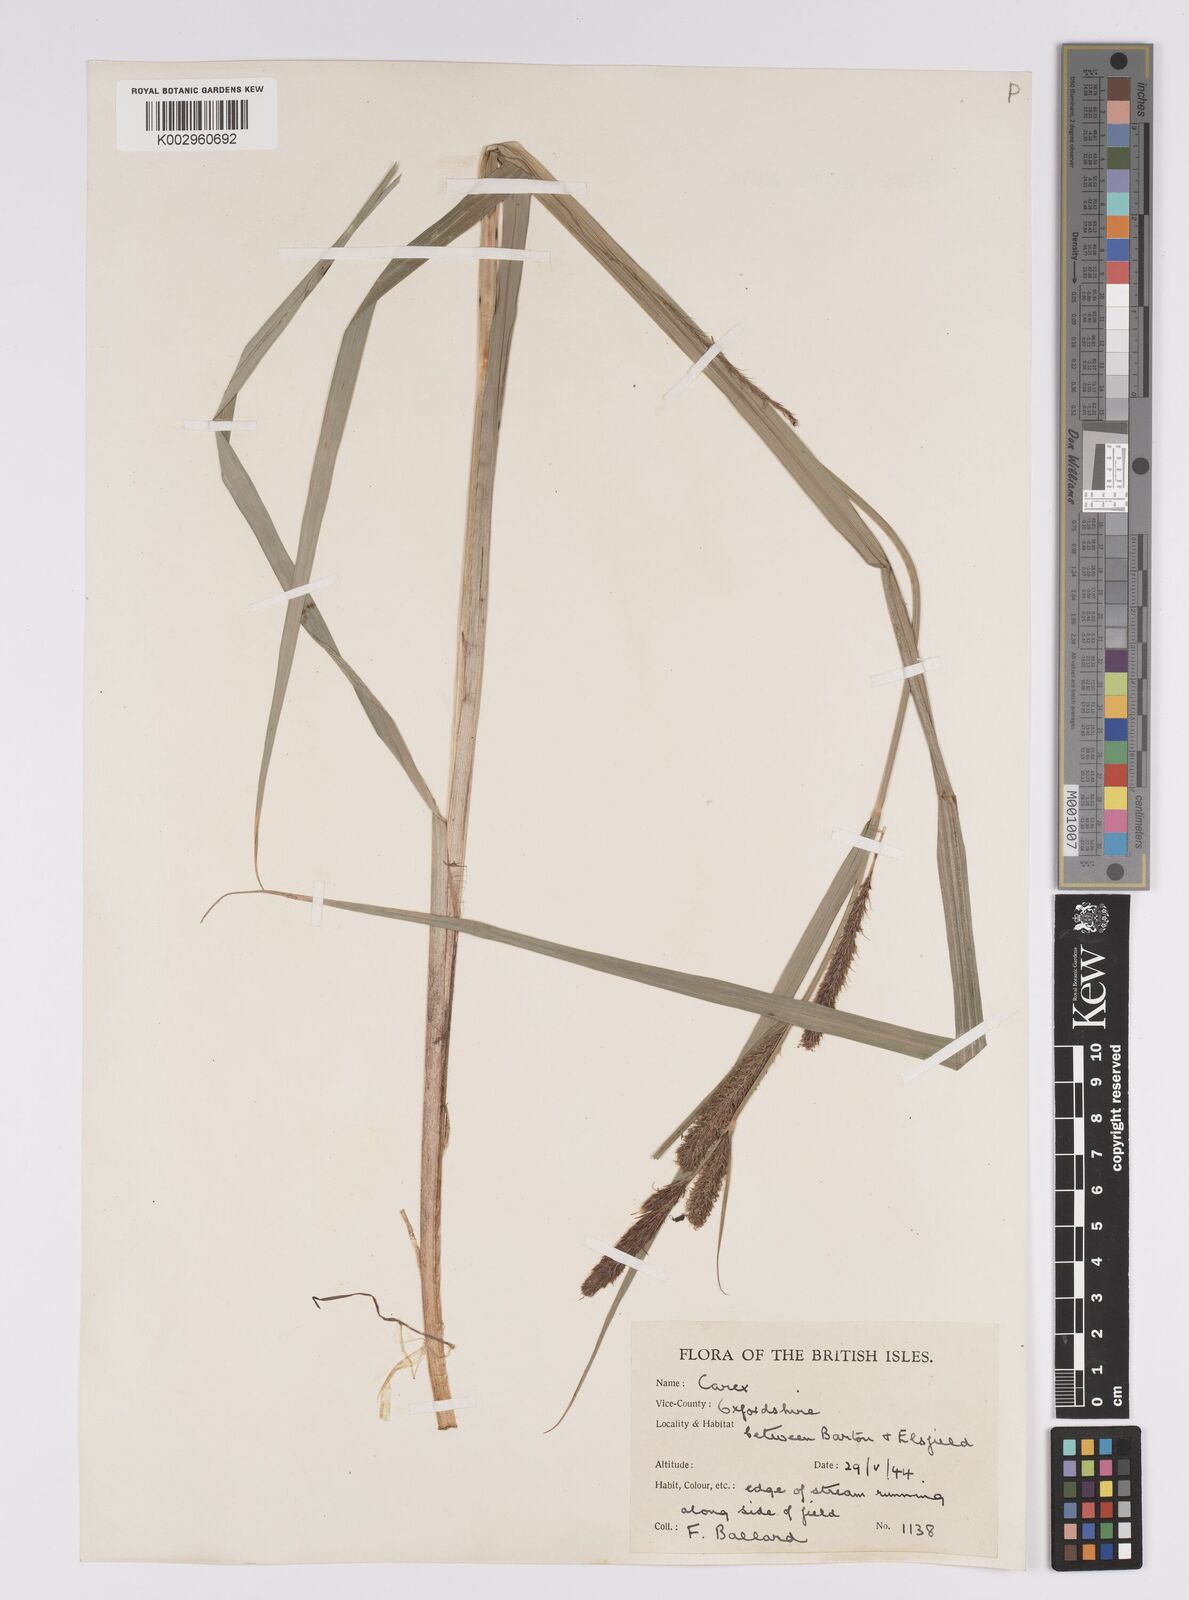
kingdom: Plantae
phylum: Tracheophyta
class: Liliopsida
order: Poales
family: Cyperaceae
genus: Carex
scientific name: Carex acutiformis
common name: Lesser pond-sedge
